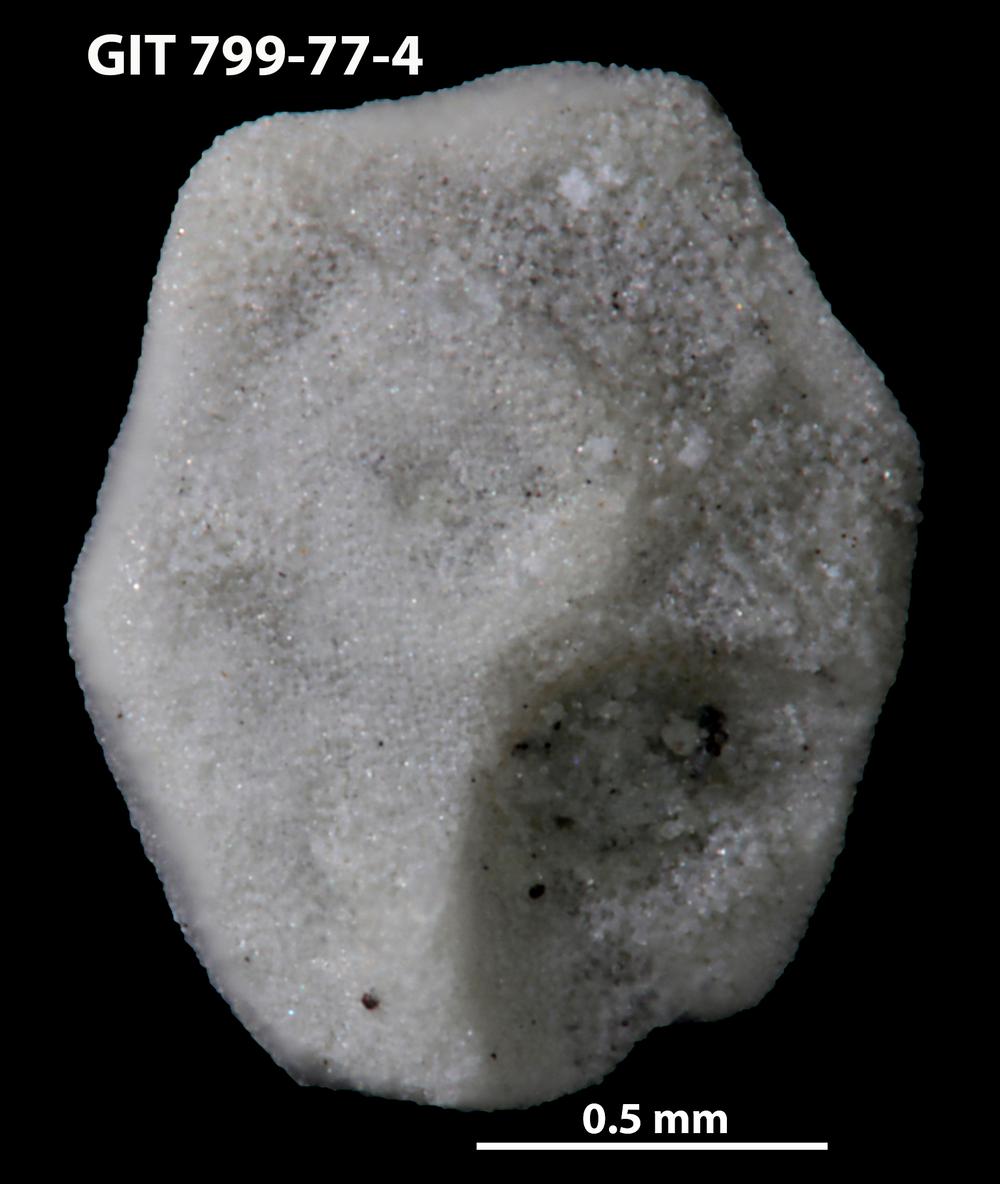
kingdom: Animalia
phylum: Echinodermata
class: Echinoidea
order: Bothriocidaroida
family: Bothriocidaridae
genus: Neobothriocidaris
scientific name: Neobothriocidaris
